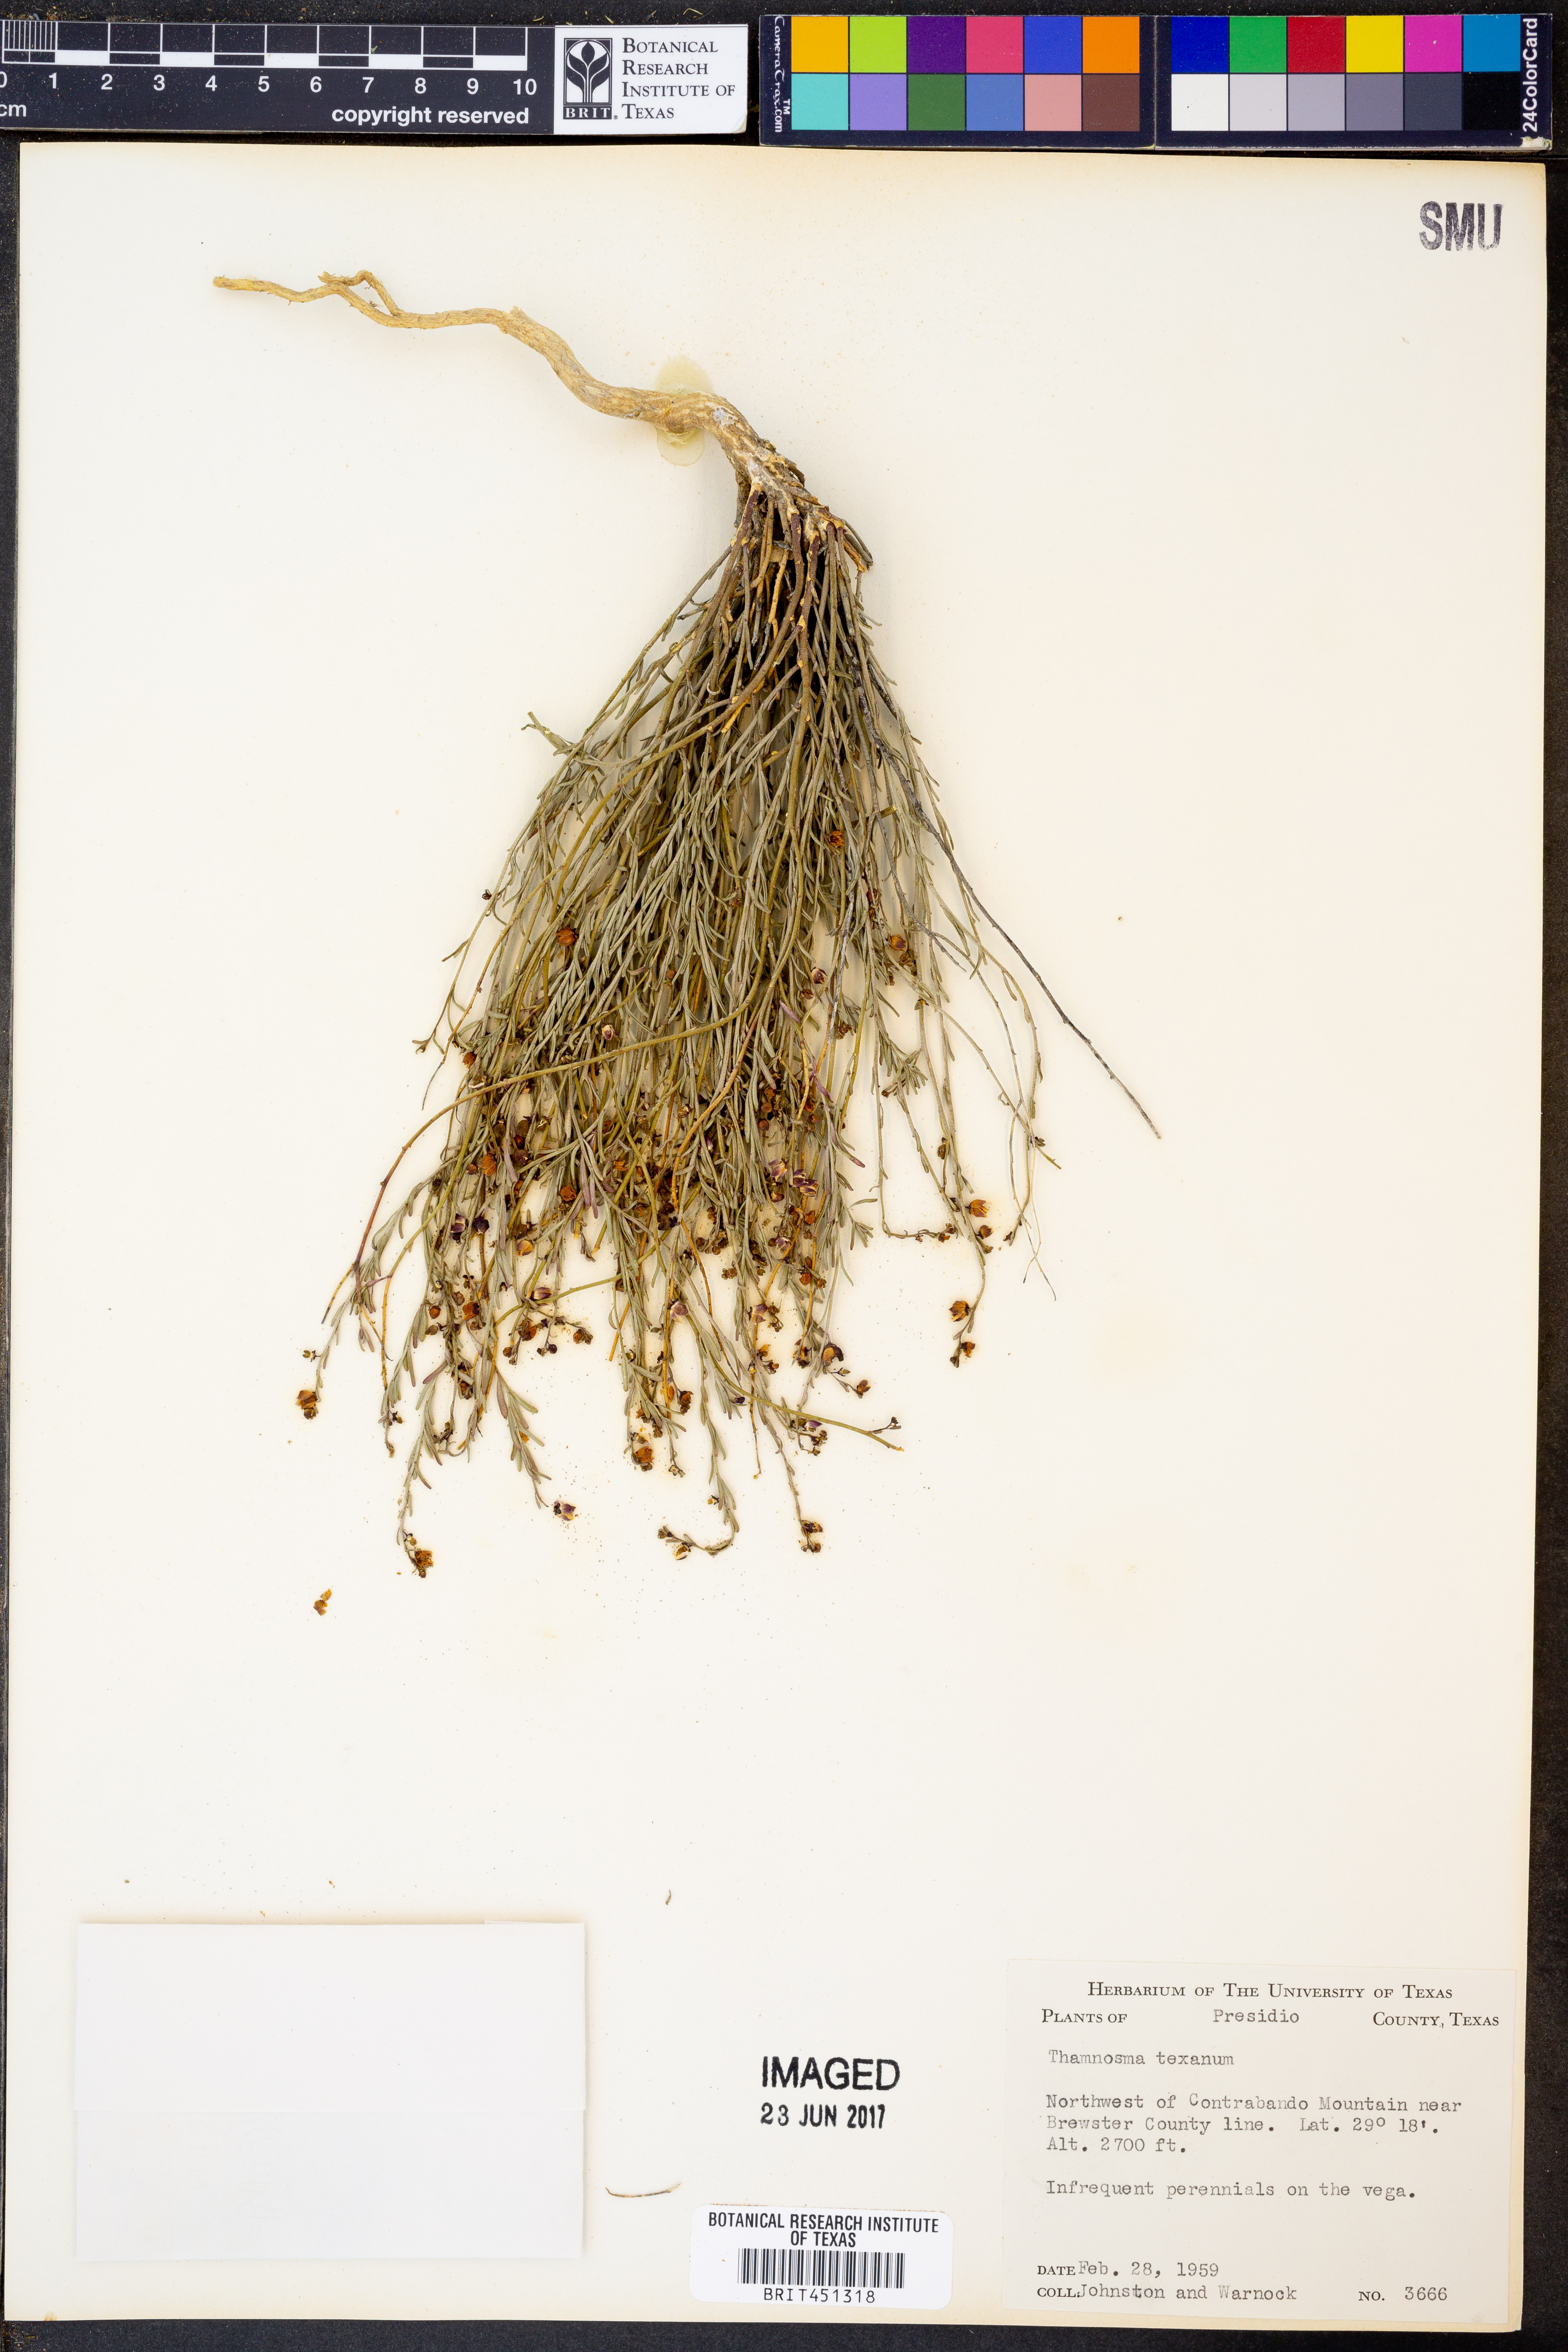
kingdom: Plantae
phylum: Tracheophyta
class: Magnoliopsida
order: Sapindales
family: Rutaceae
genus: Thamnosma
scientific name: Thamnosma texana
